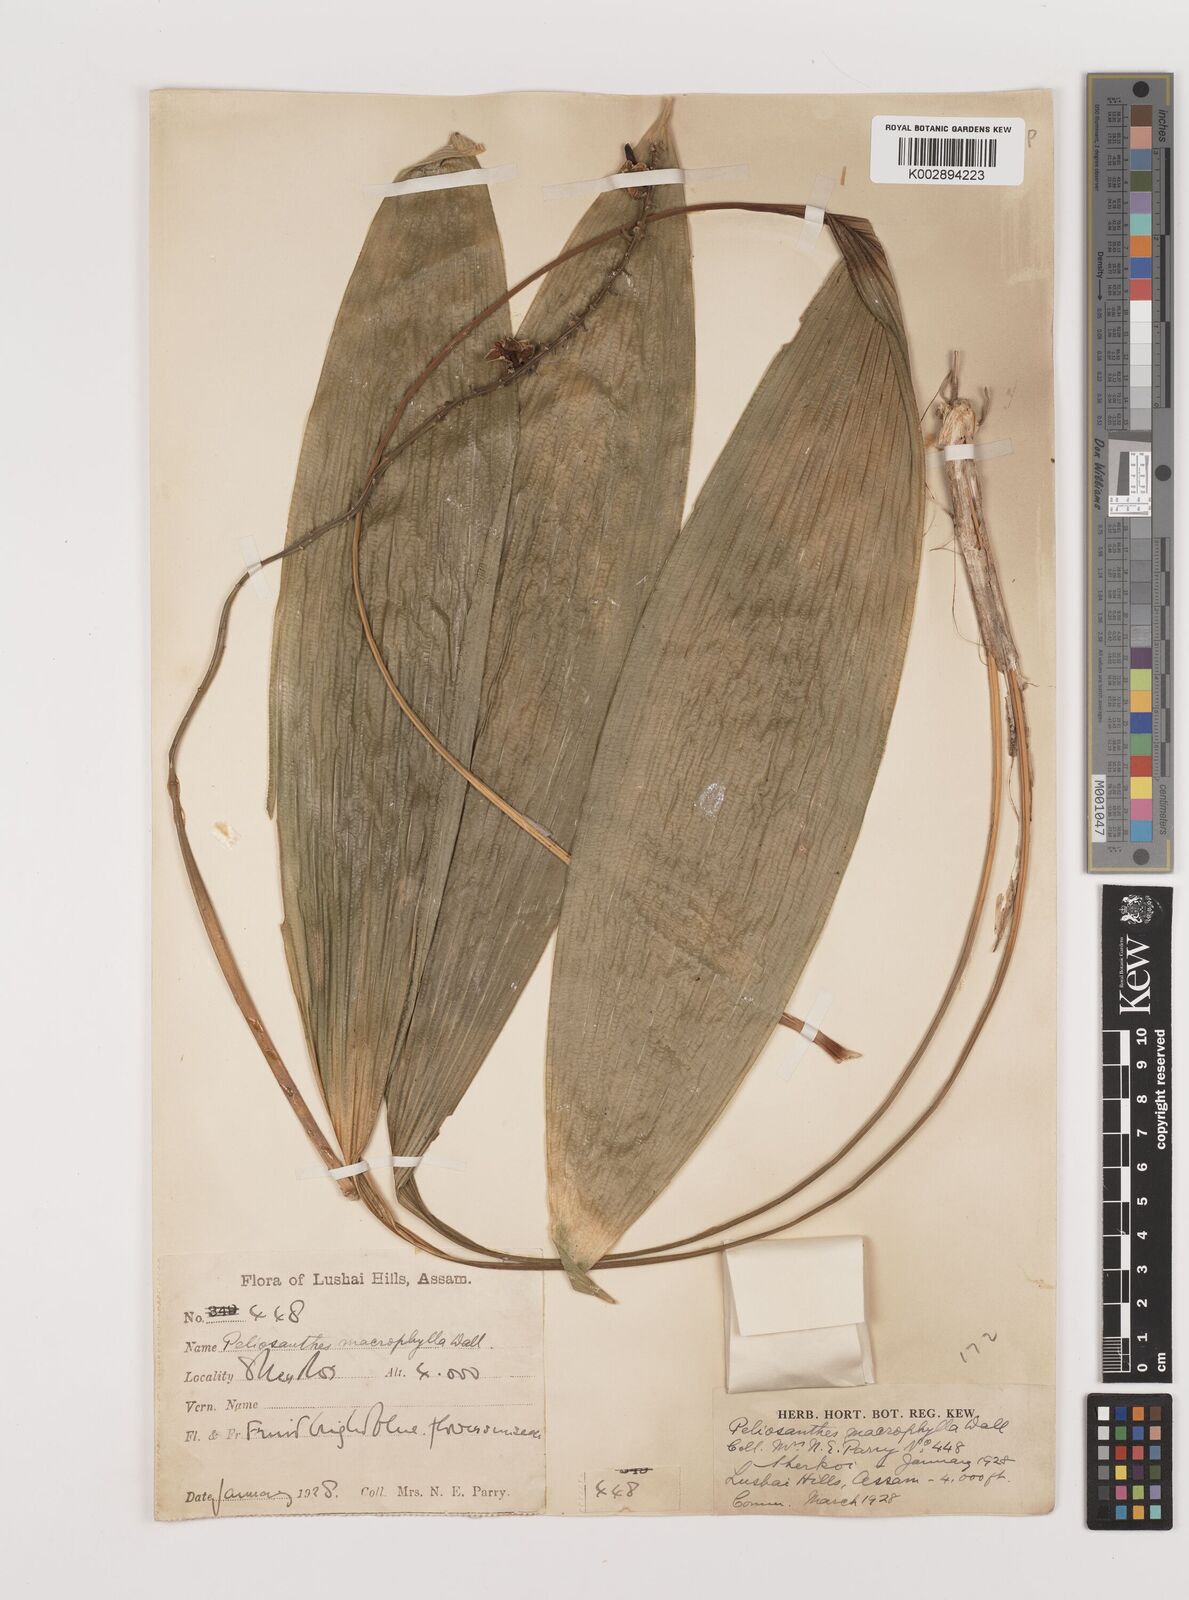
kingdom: Plantae
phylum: Tracheophyta
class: Liliopsida
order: Asparagales
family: Asparagaceae
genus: Peliosanthes
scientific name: Peliosanthes teta
